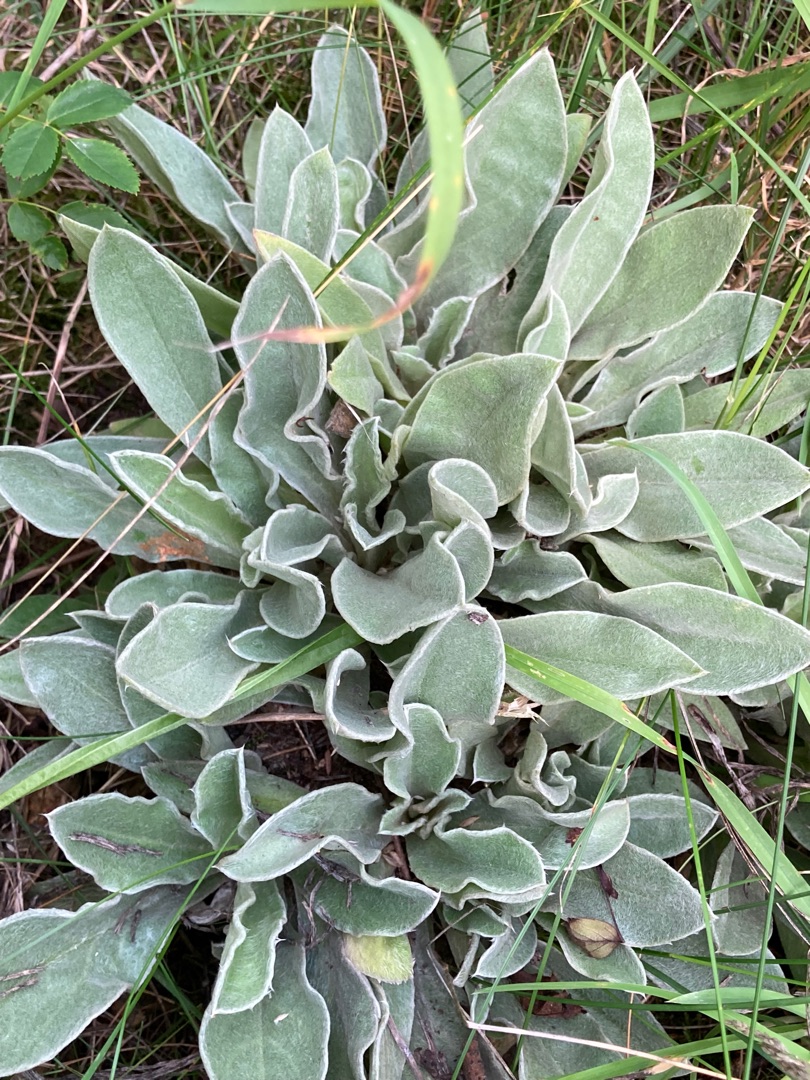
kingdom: Plantae
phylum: Tracheophyta
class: Magnoliopsida
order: Caryophyllales
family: Caryophyllaceae
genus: Silene
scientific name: Silene coronaria
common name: Fiksernellike
